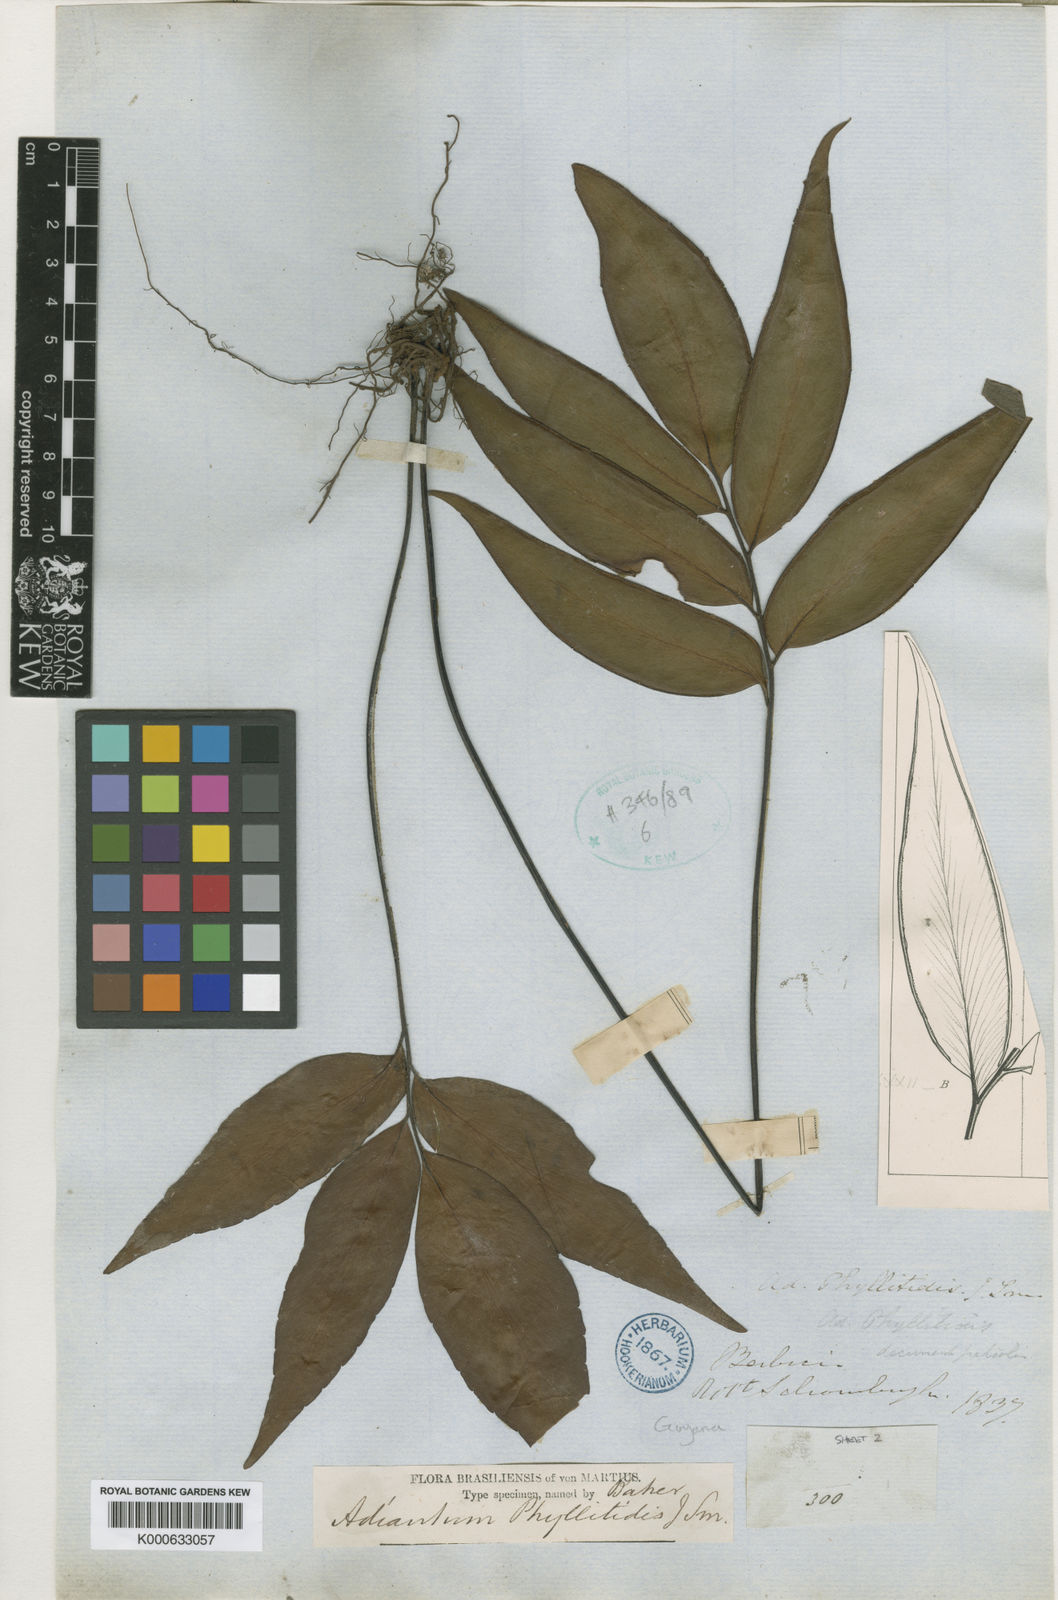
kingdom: Plantae
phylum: Tracheophyta
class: Polypodiopsida
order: Polypodiales
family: Pteridaceae
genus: Adiantum
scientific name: Adiantum phyllitidis
